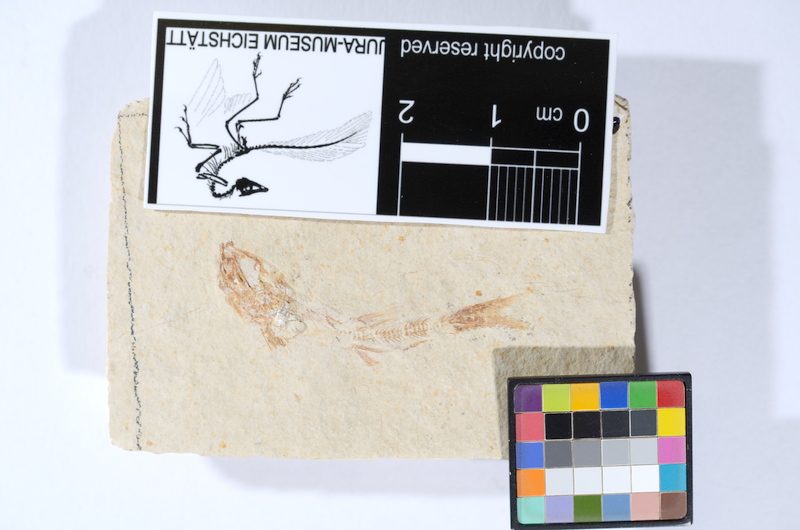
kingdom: Animalia
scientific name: Animalia
